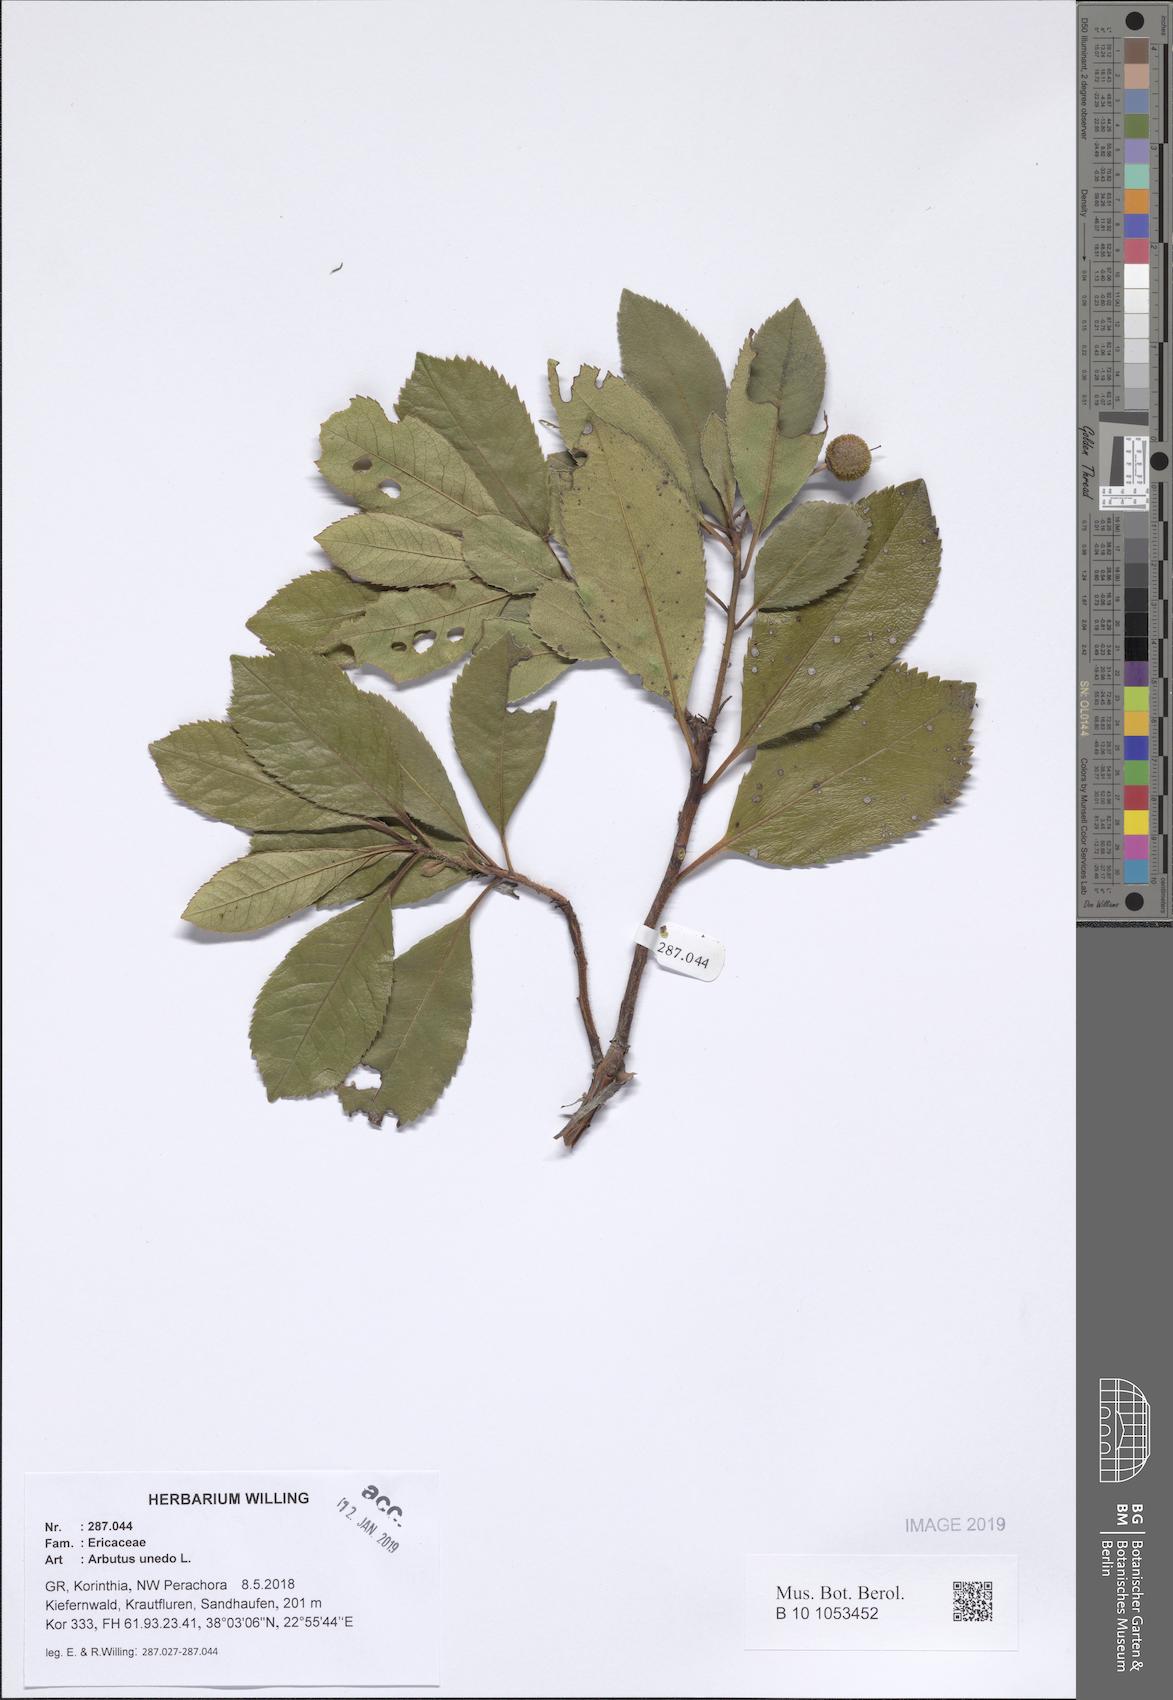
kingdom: Plantae
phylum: Tracheophyta
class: Magnoliopsida
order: Ericales
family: Ericaceae
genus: Arbutus
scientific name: Arbutus unedo
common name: Strawberry-tree
